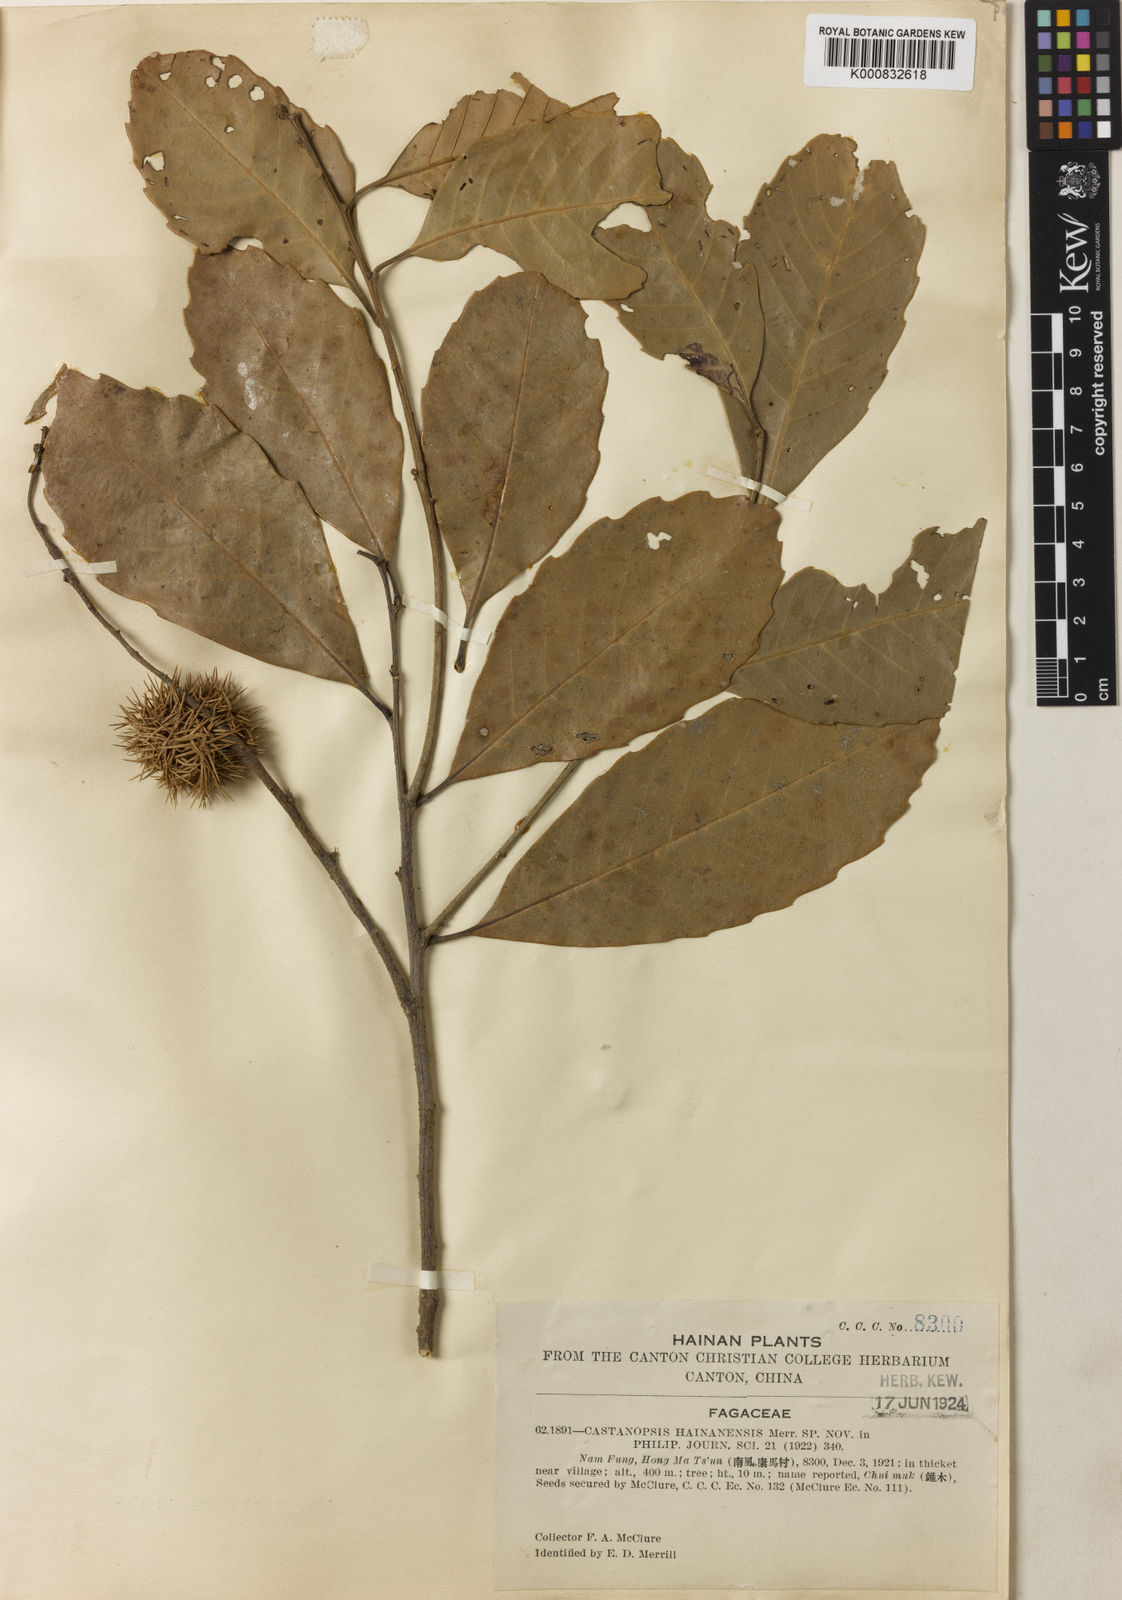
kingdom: Plantae
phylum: Tracheophyta
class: Magnoliopsida
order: Fagales
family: Fagaceae
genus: Castanopsis
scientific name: Castanopsis hainanensis
